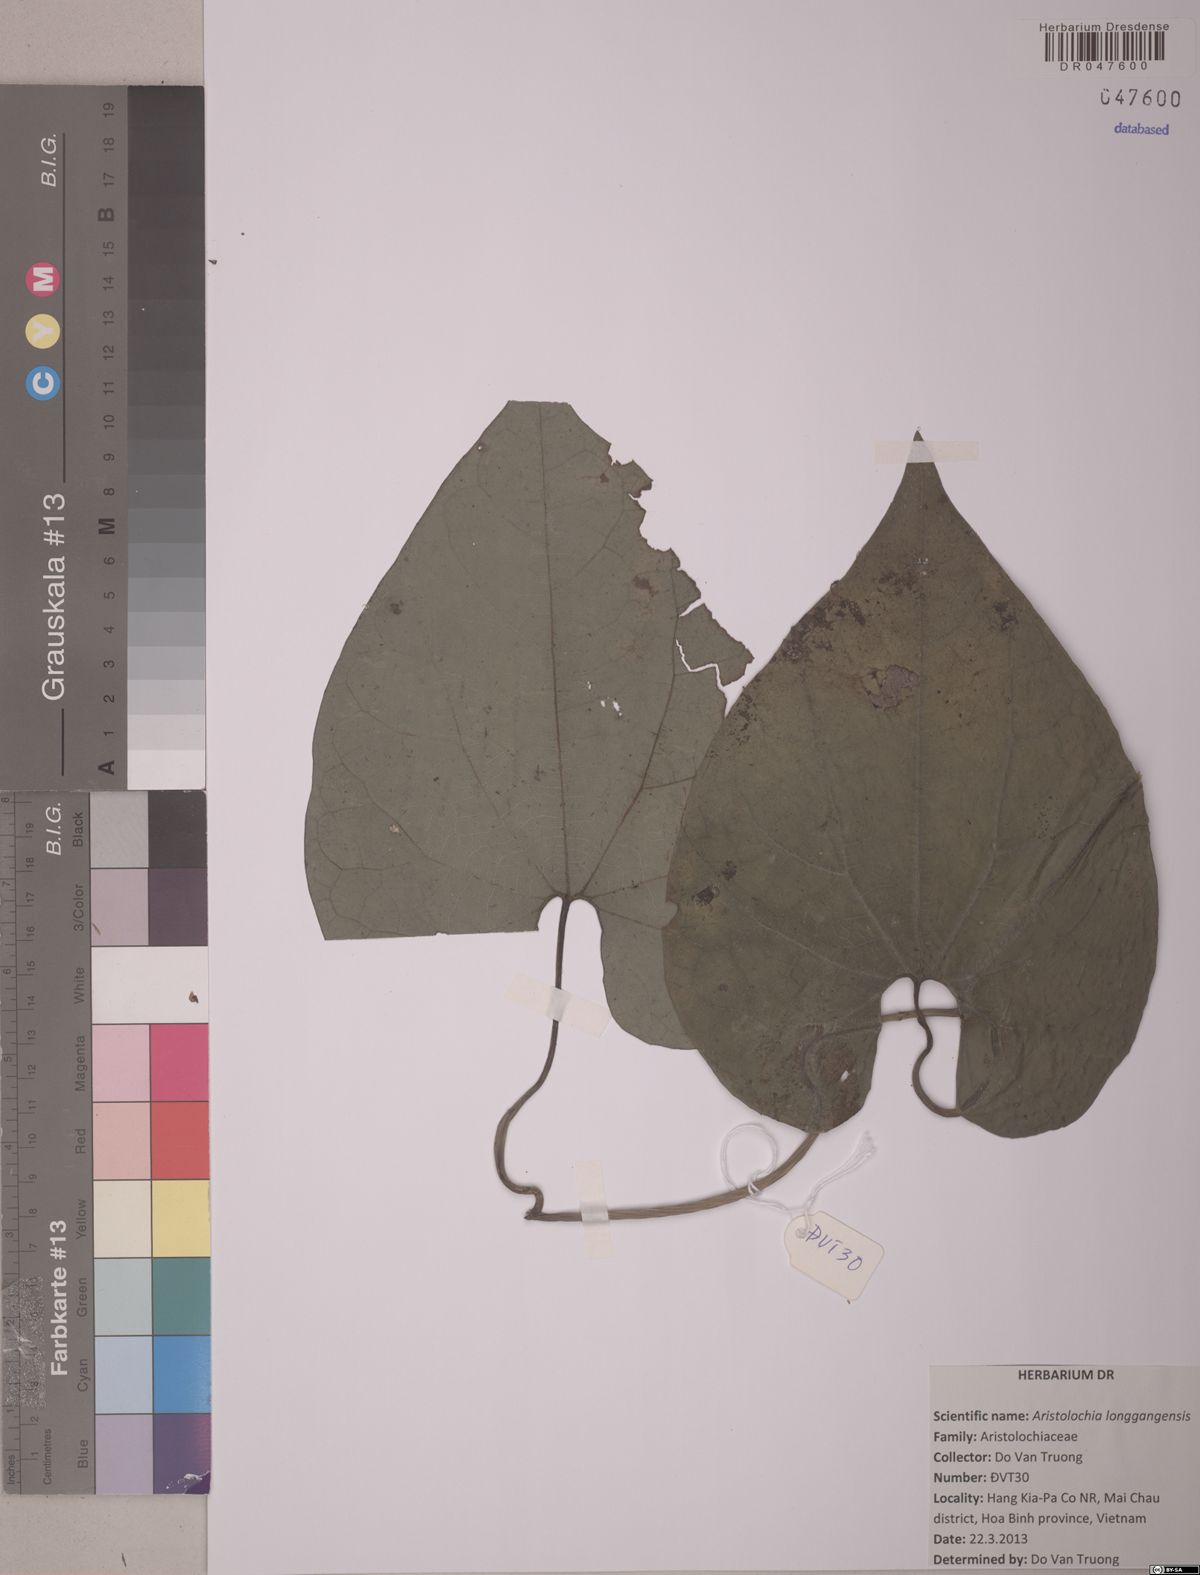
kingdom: Plantae
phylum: Tracheophyta
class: Magnoliopsida
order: Piperales
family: Aristolochiaceae
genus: Aristolochia
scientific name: Aristolochia longgangensis
